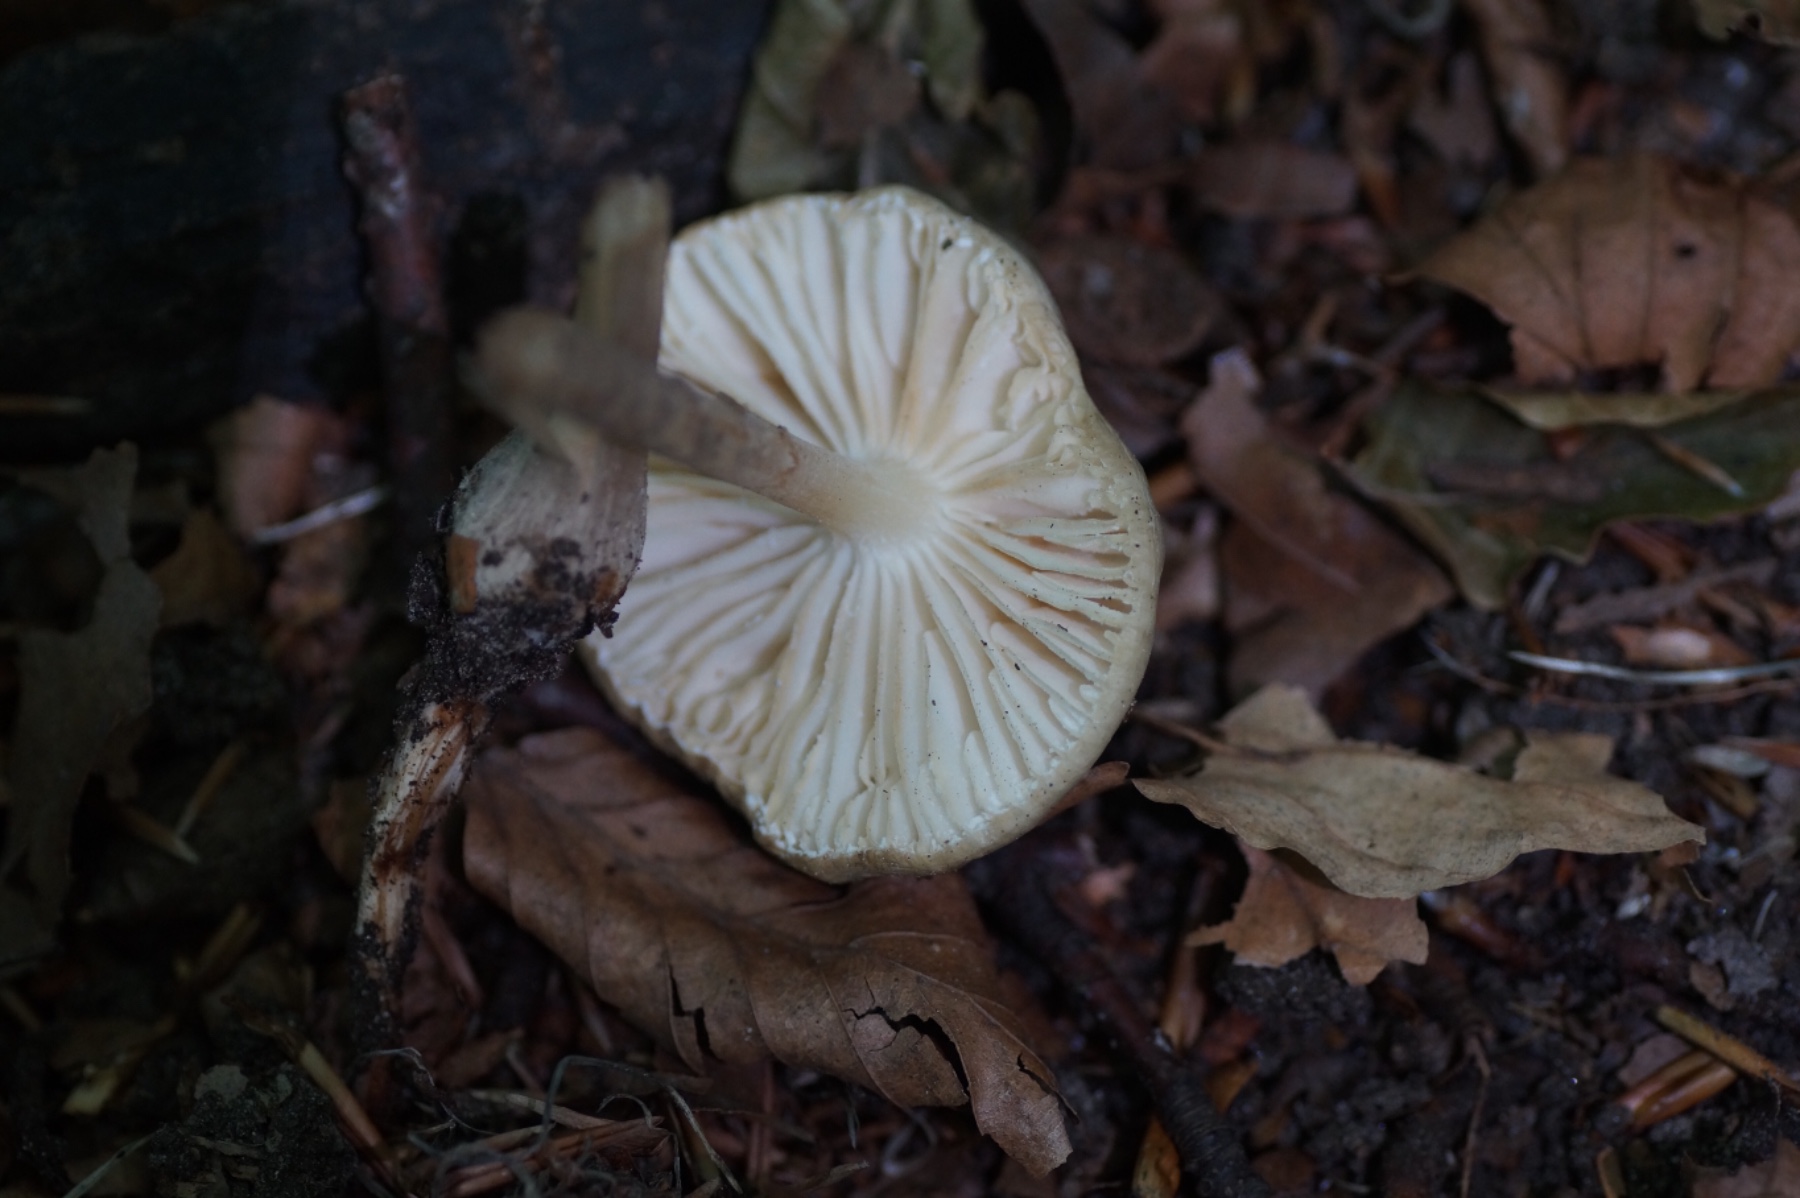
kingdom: Fungi
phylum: Basidiomycota
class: Agaricomycetes
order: Agaricales
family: Physalacriaceae
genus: Hymenopellis
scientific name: Hymenopellis radicata
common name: almindelig pælerodshat
